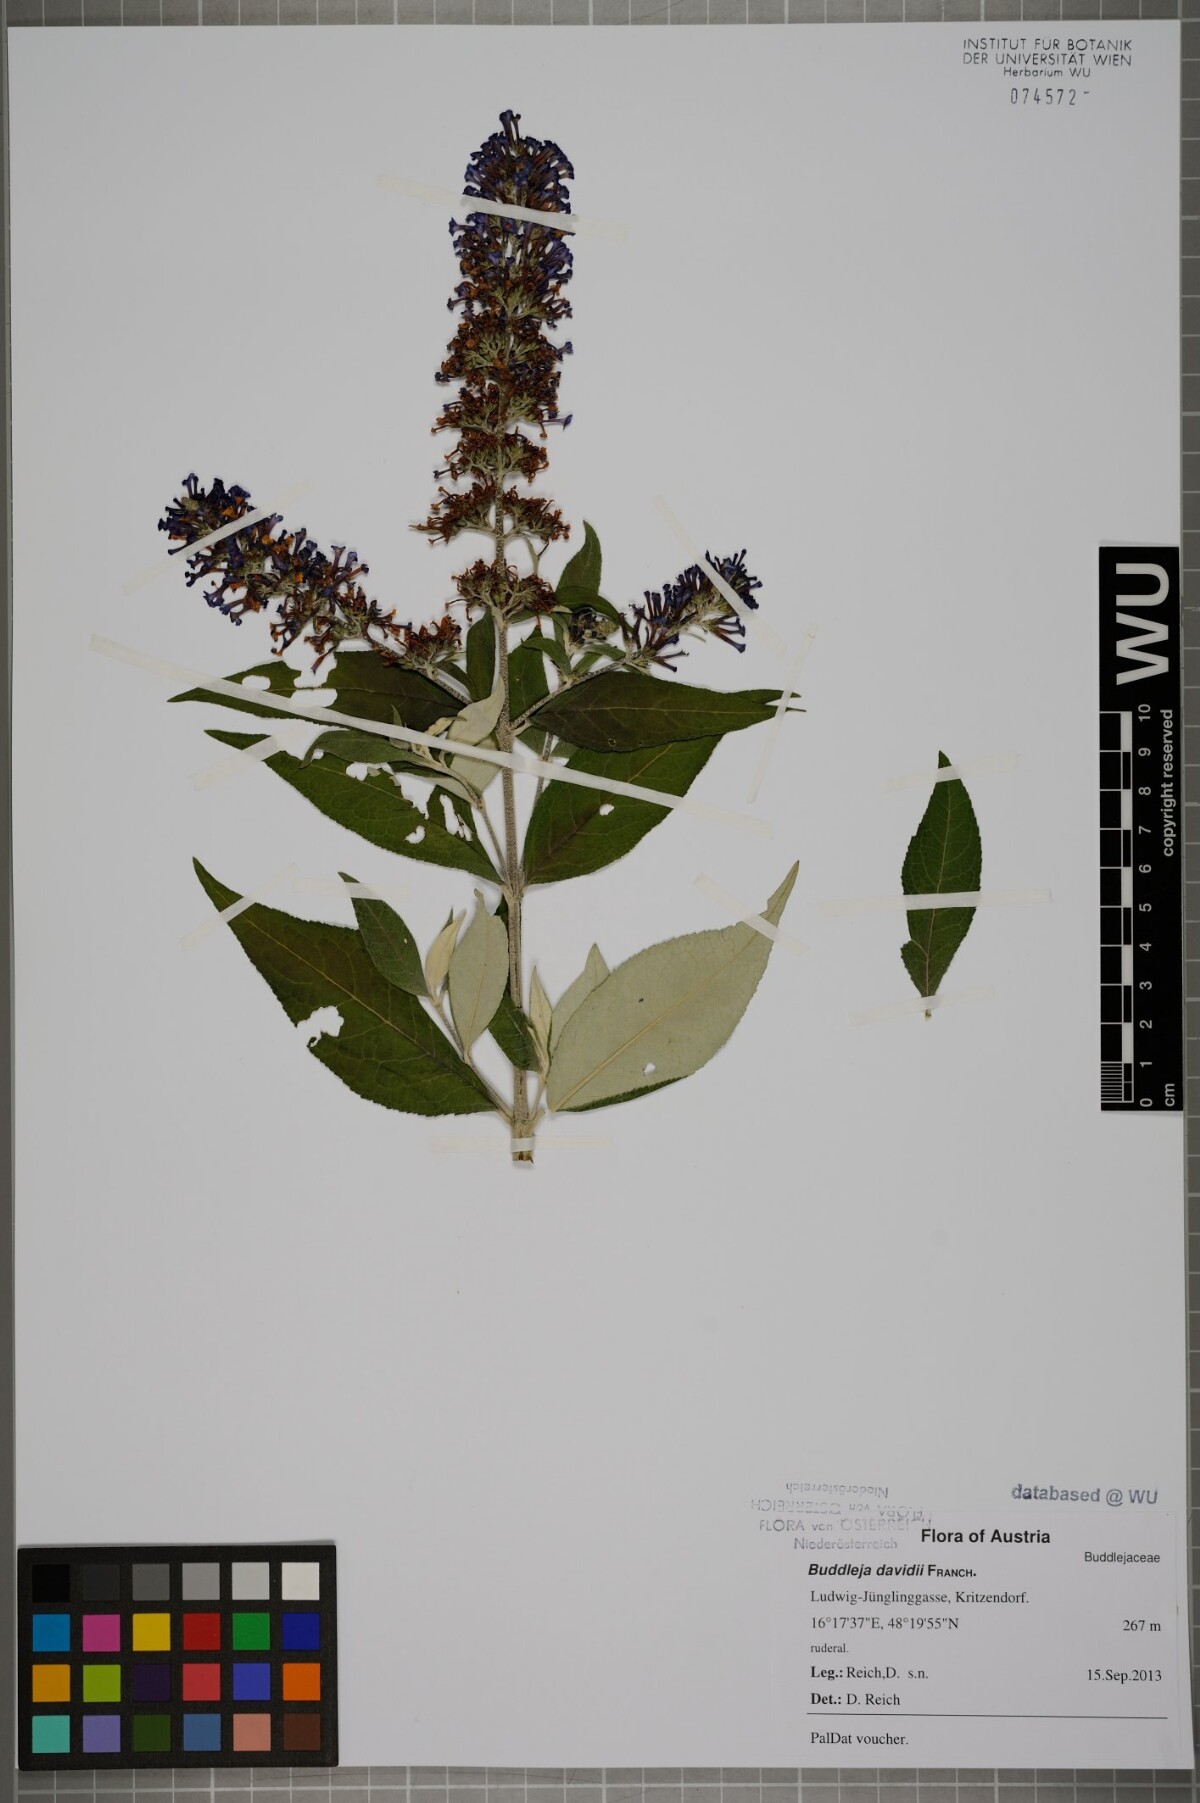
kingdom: Plantae
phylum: Tracheophyta
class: Magnoliopsida
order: Lamiales
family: Scrophulariaceae
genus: Buddleja
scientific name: Buddleja davidii
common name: Butterfly-bush
